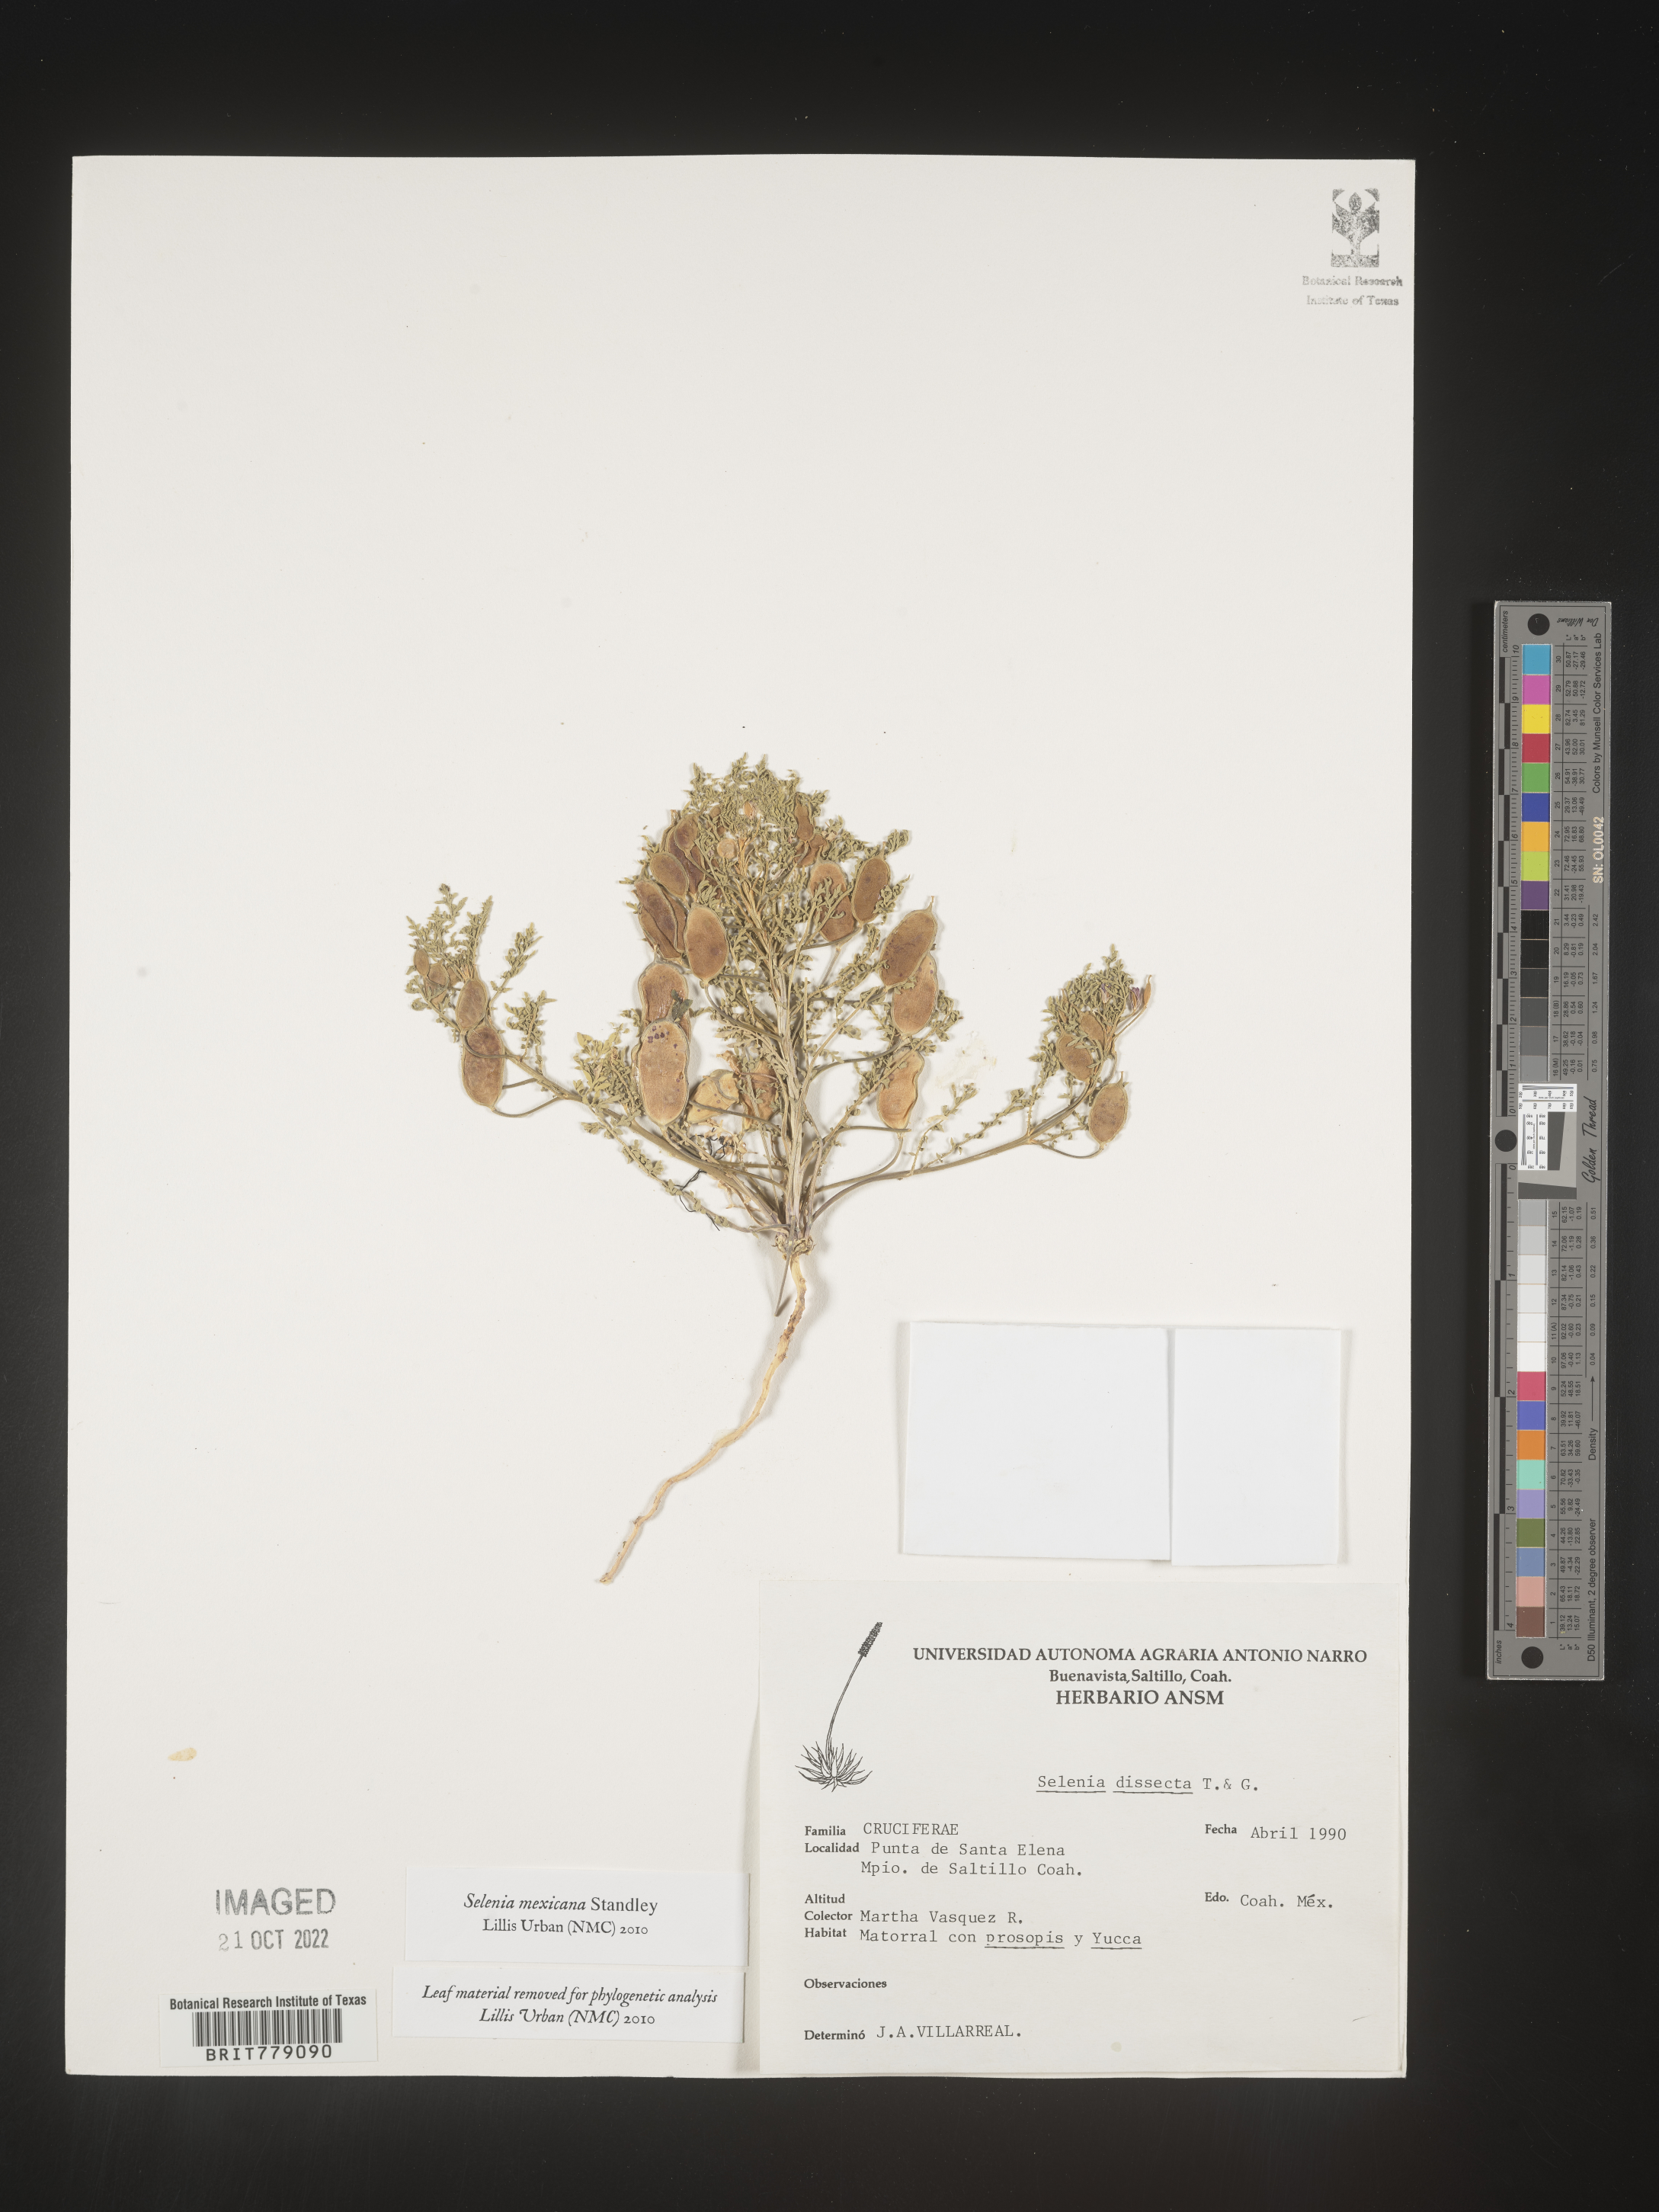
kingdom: Plantae
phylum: Tracheophyta
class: Magnoliopsida
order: Brassicales
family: Brassicaceae
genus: Selenia
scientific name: Selenia mexicana
